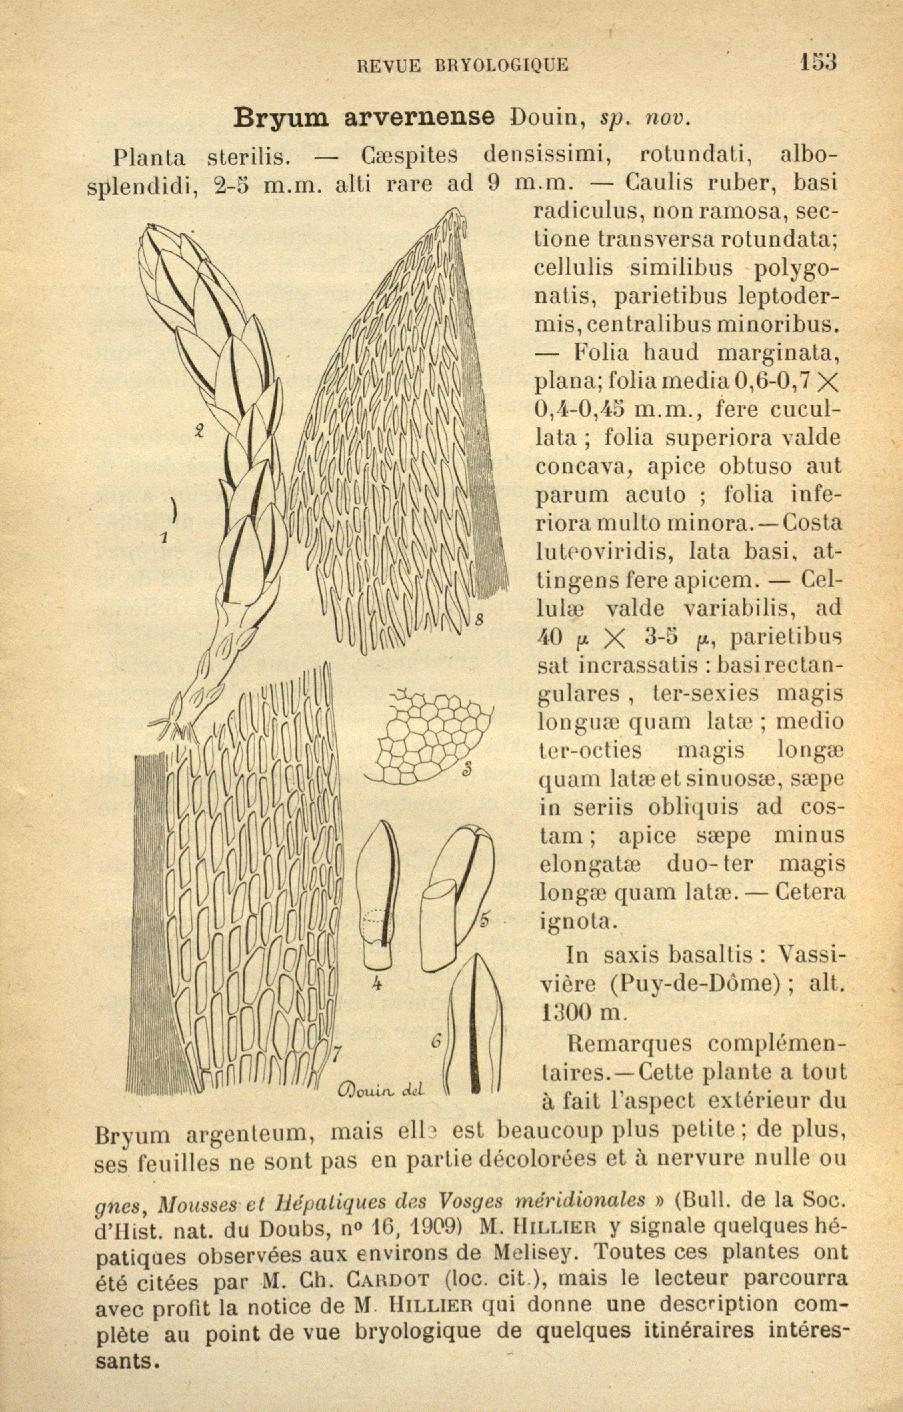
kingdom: Plantae
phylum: Bryophyta
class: Bryopsida
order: Bryales
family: Bryaceae
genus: Anomobryum
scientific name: Anomobryum concinnatum
